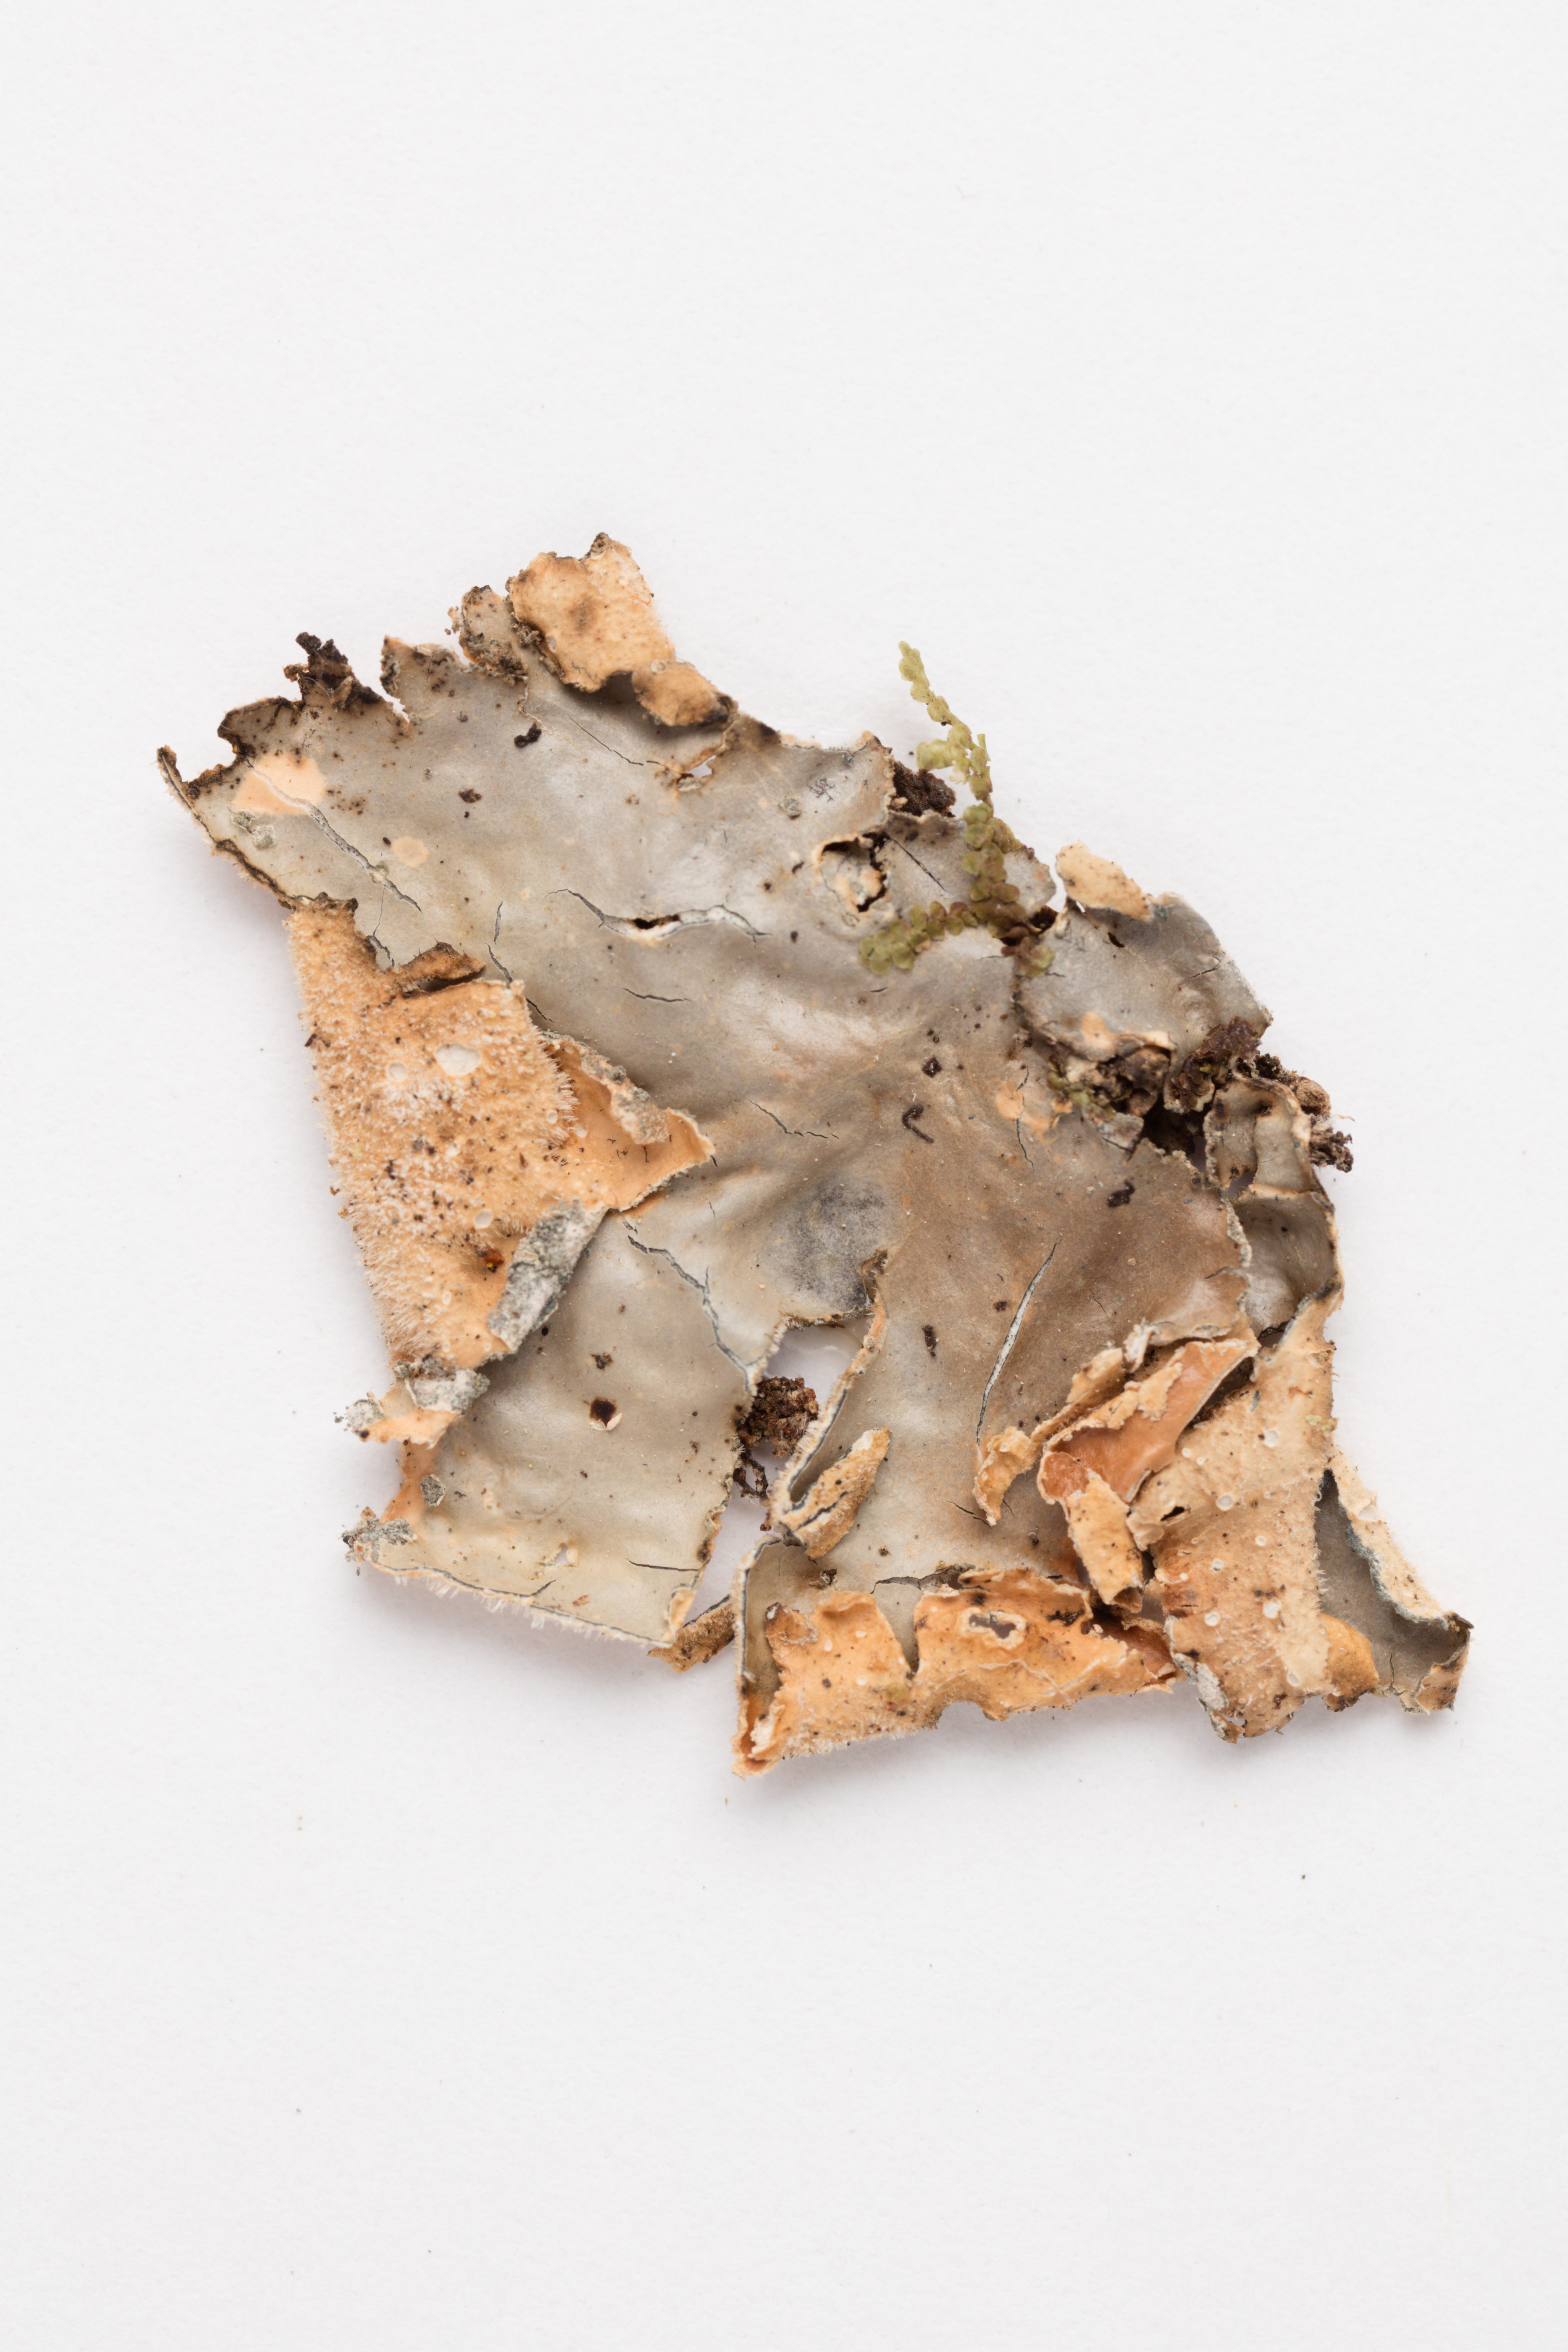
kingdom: Fungi
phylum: Ascomycota
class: Lecanoromycetes
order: Peltigerales
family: Lobariaceae
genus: Sticta
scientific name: Sticta limbata
